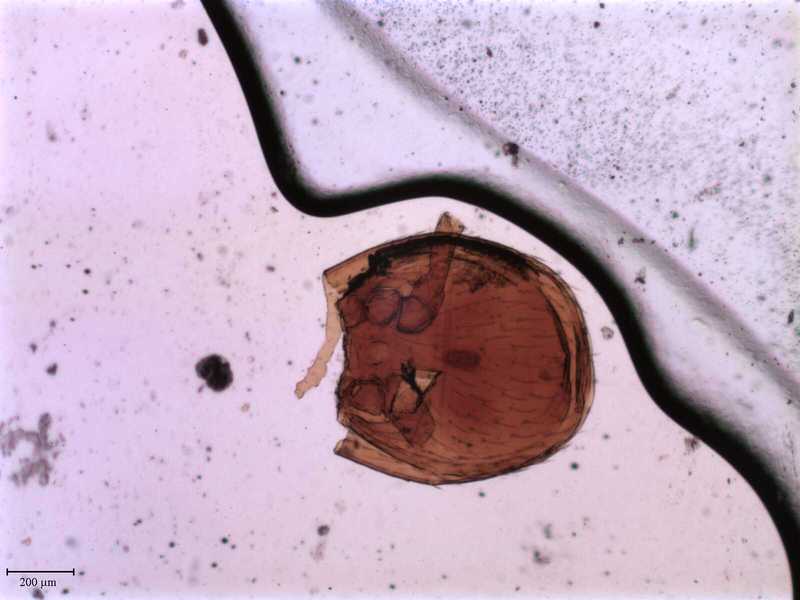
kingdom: Animalia
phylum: Arthropoda
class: Arachnida
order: Mesostigmata
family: Cercomegistidae
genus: Cercomegistus
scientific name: Cercomegistus simplicior
